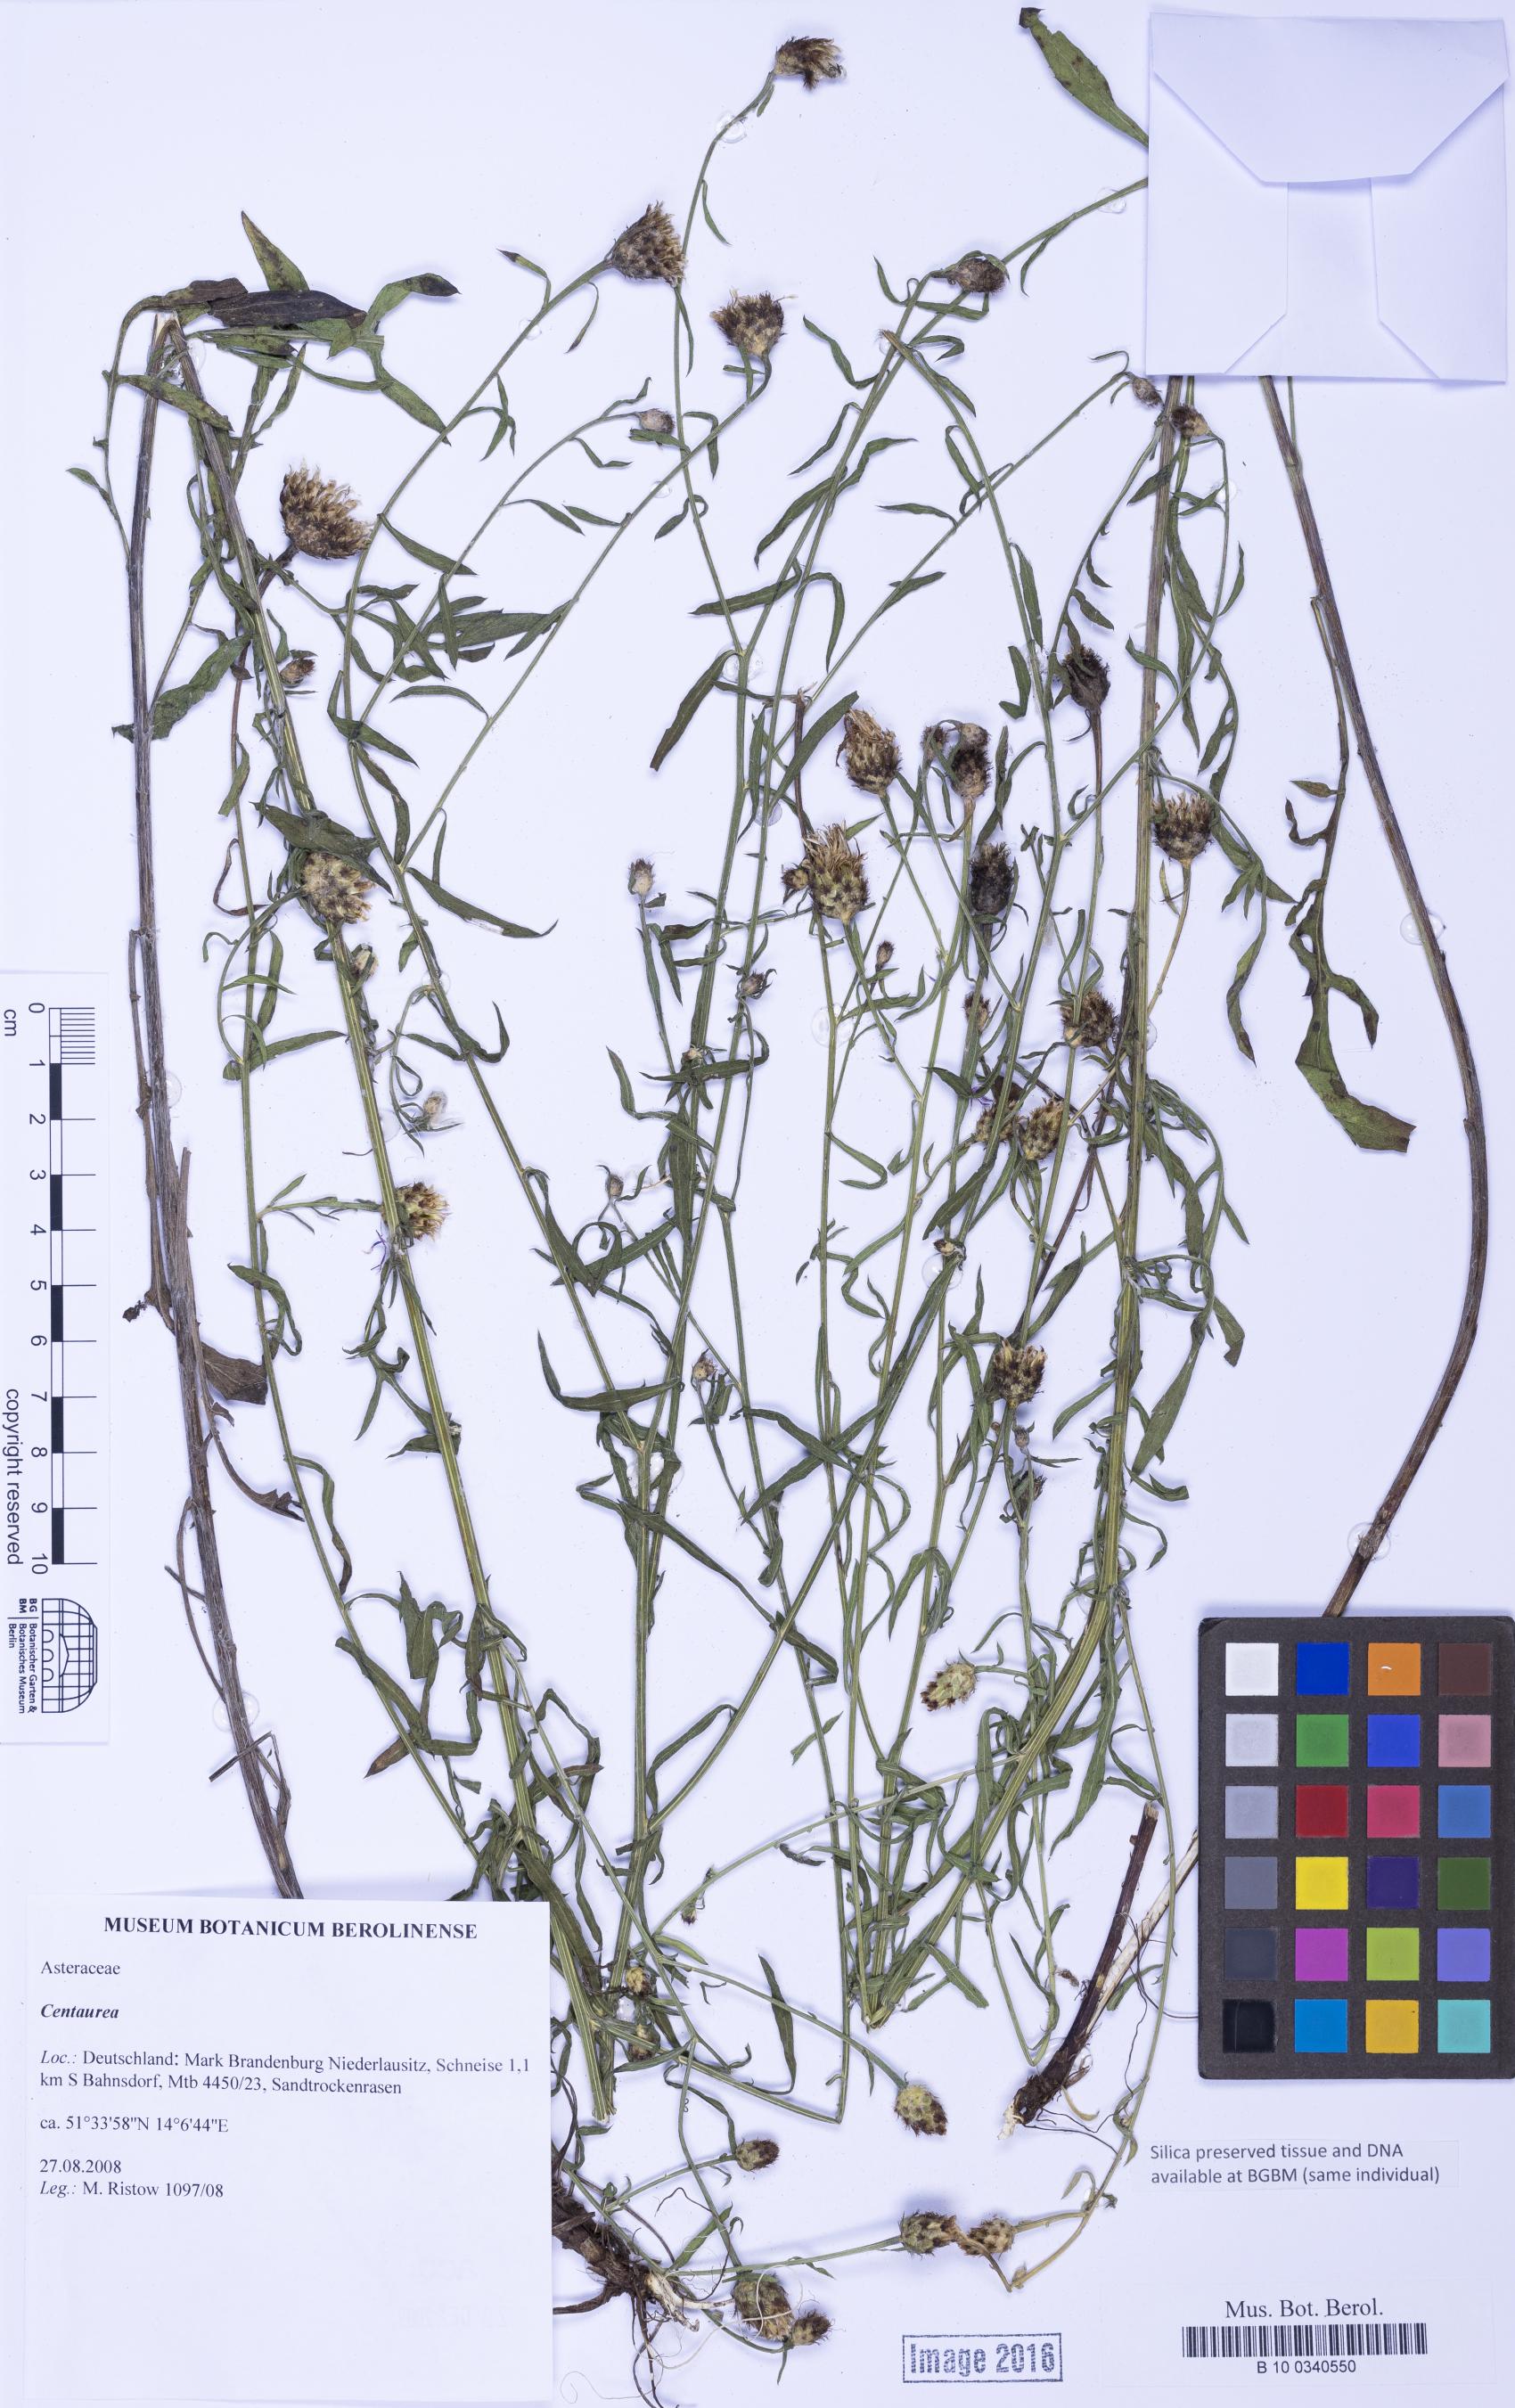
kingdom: Plantae
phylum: Tracheophyta
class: Magnoliopsida
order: Asterales
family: Asteraceae
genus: Centaurea
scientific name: Centaurea
